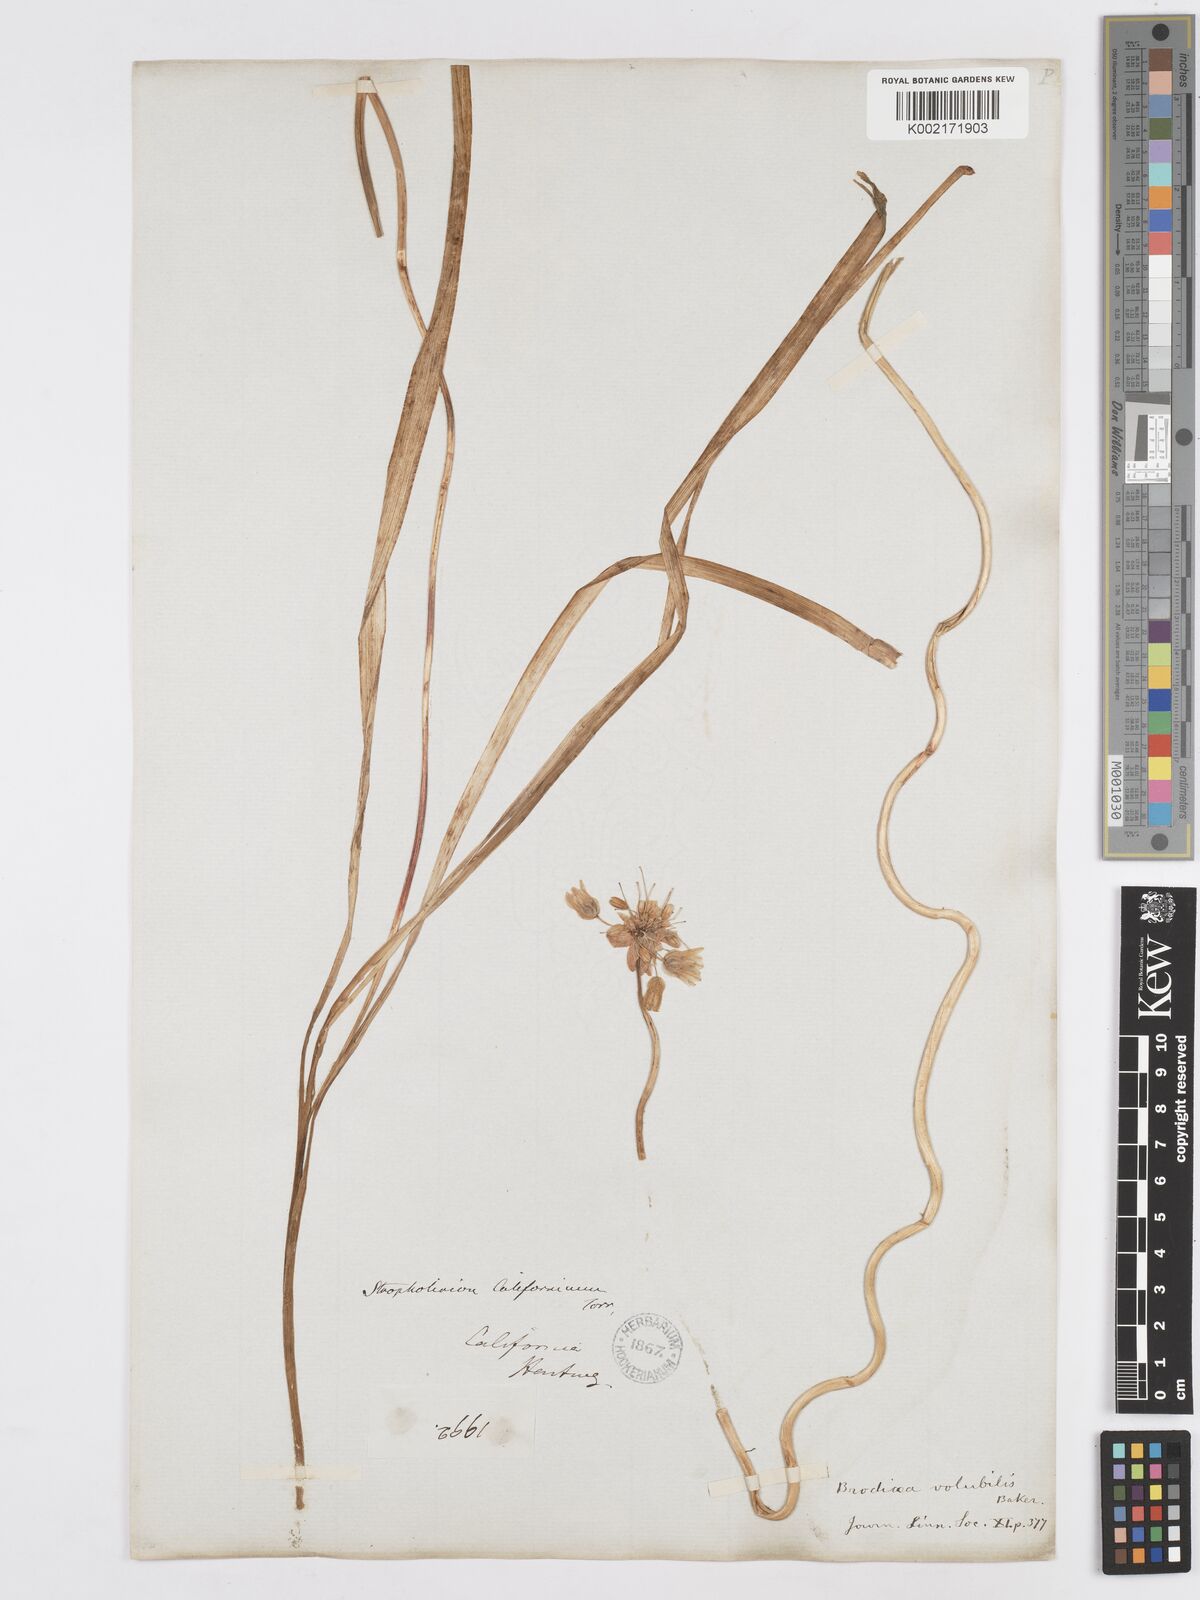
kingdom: Plantae
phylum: Tracheophyta
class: Liliopsida
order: Asparagales
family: Asparagaceae
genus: Dichelostemma
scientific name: Dichelostemma volubile
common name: Trining brodiaea
